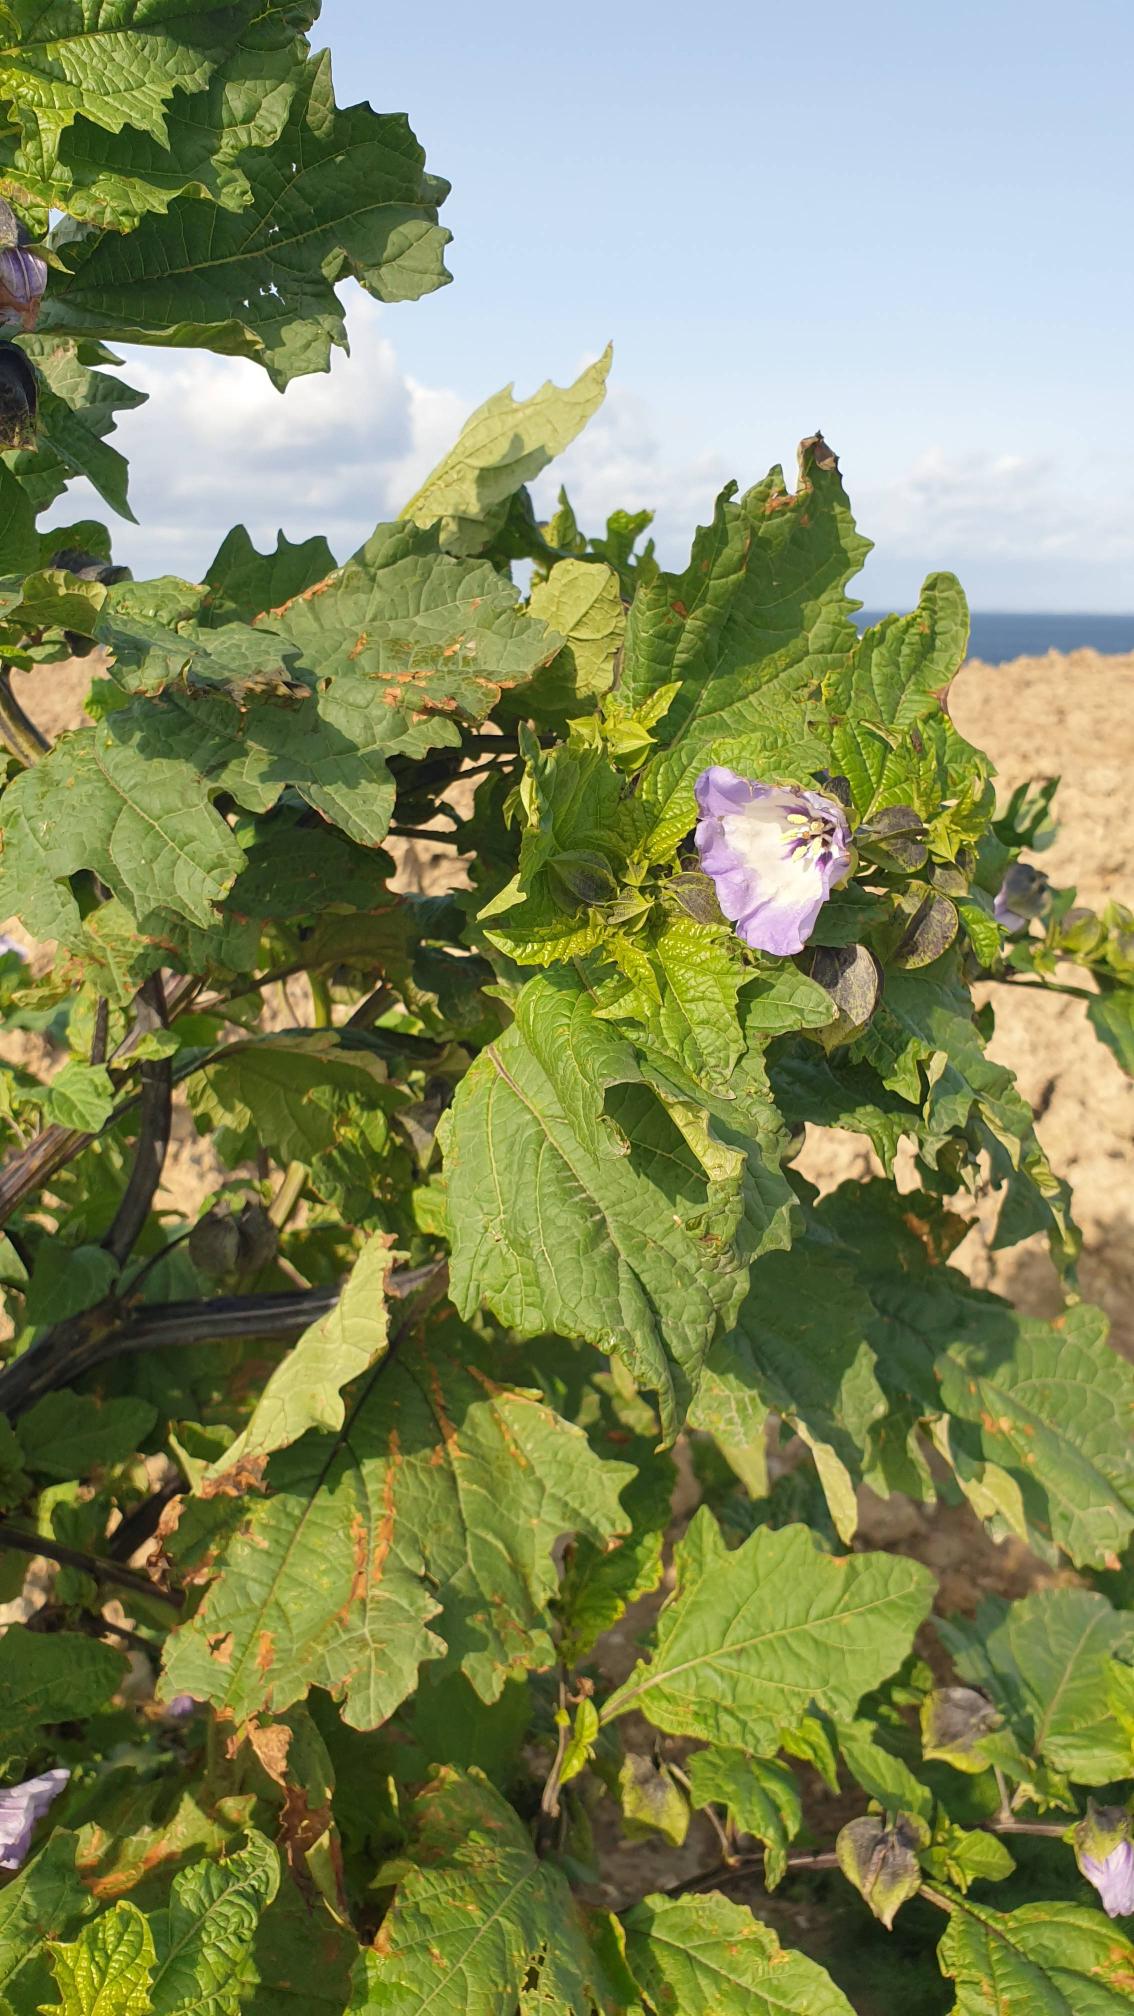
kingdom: Plantae
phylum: Tracheophyta
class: Magnoliopsida
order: Solanales
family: Solanaceae
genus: Nicandra
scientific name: Nicandra physalodes
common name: Kantbæger
